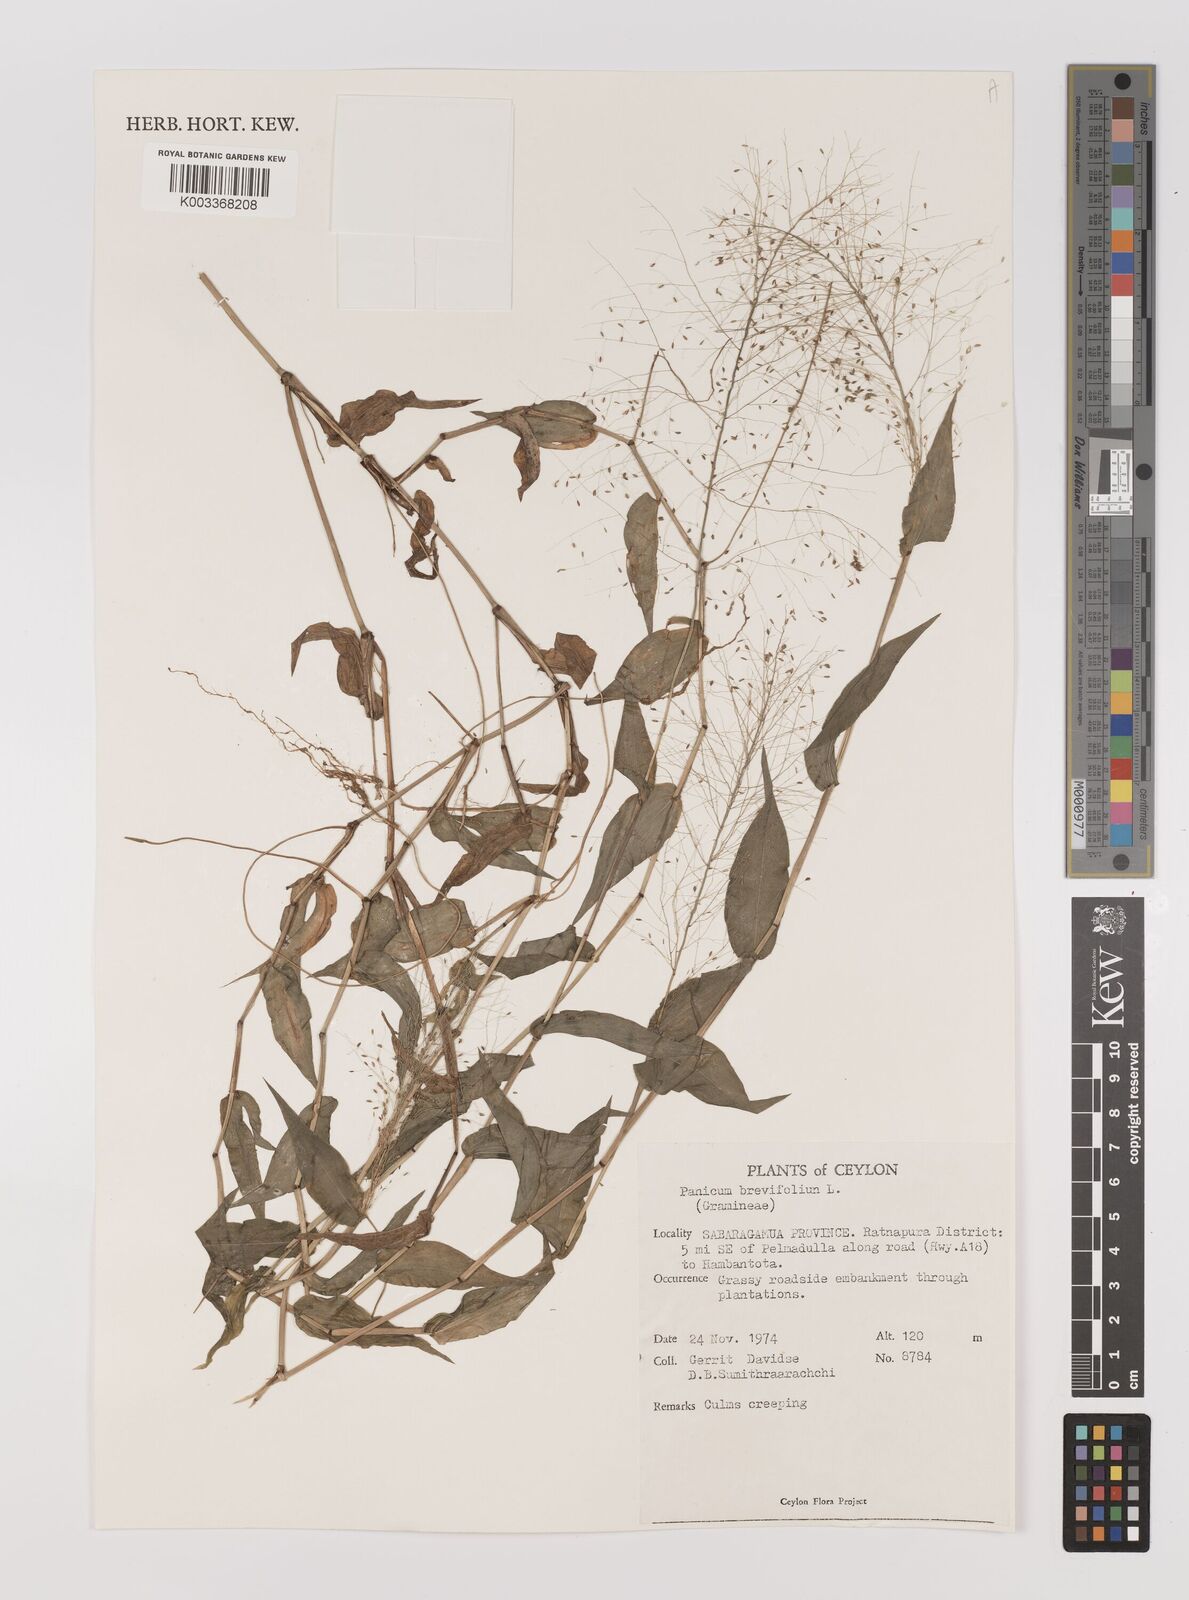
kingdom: Plantae
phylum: Tracheophyta
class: Liliopsida
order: Poales
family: Poaceae
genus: Panicum
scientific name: Panicum brevifolium
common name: Shortleaf panic grass
